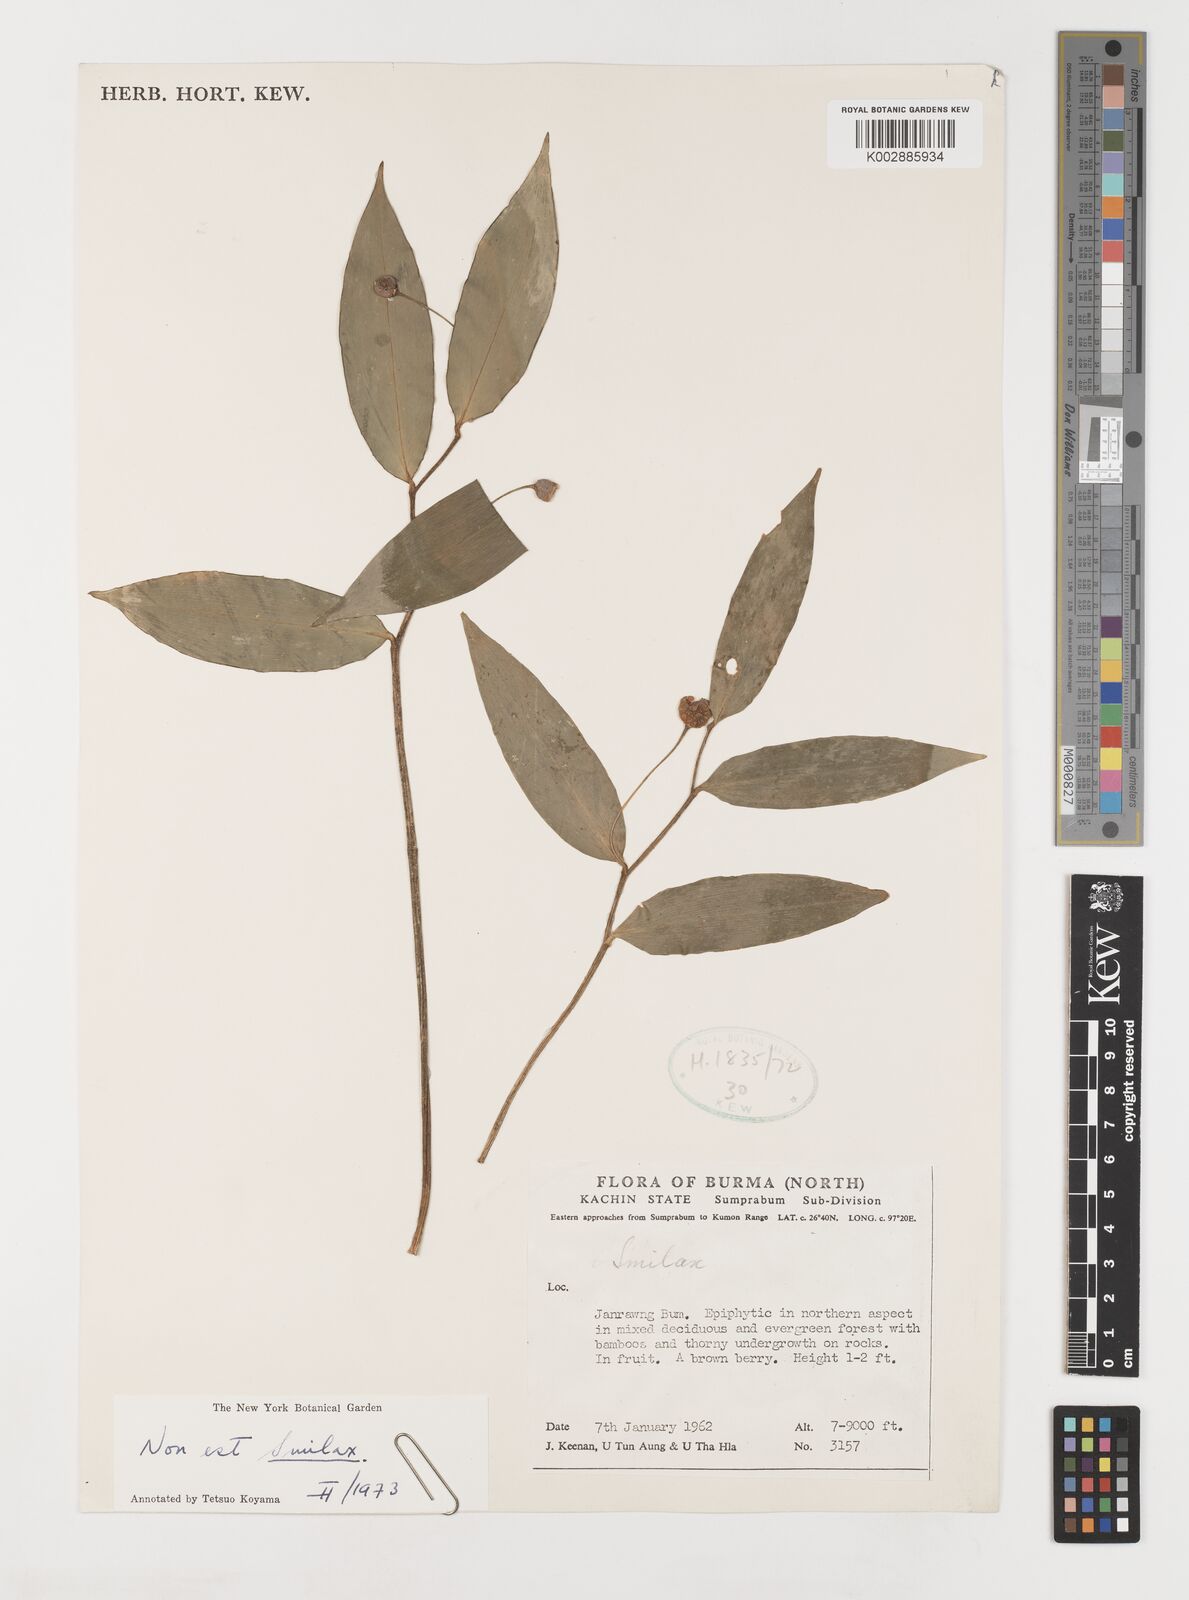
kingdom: Plantae
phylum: Tracheophyta
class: Liliopsida
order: Liliales
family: Liliaceae
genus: Streptopus
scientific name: Streptopus amplexifolius
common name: Clasp twisted stalk
